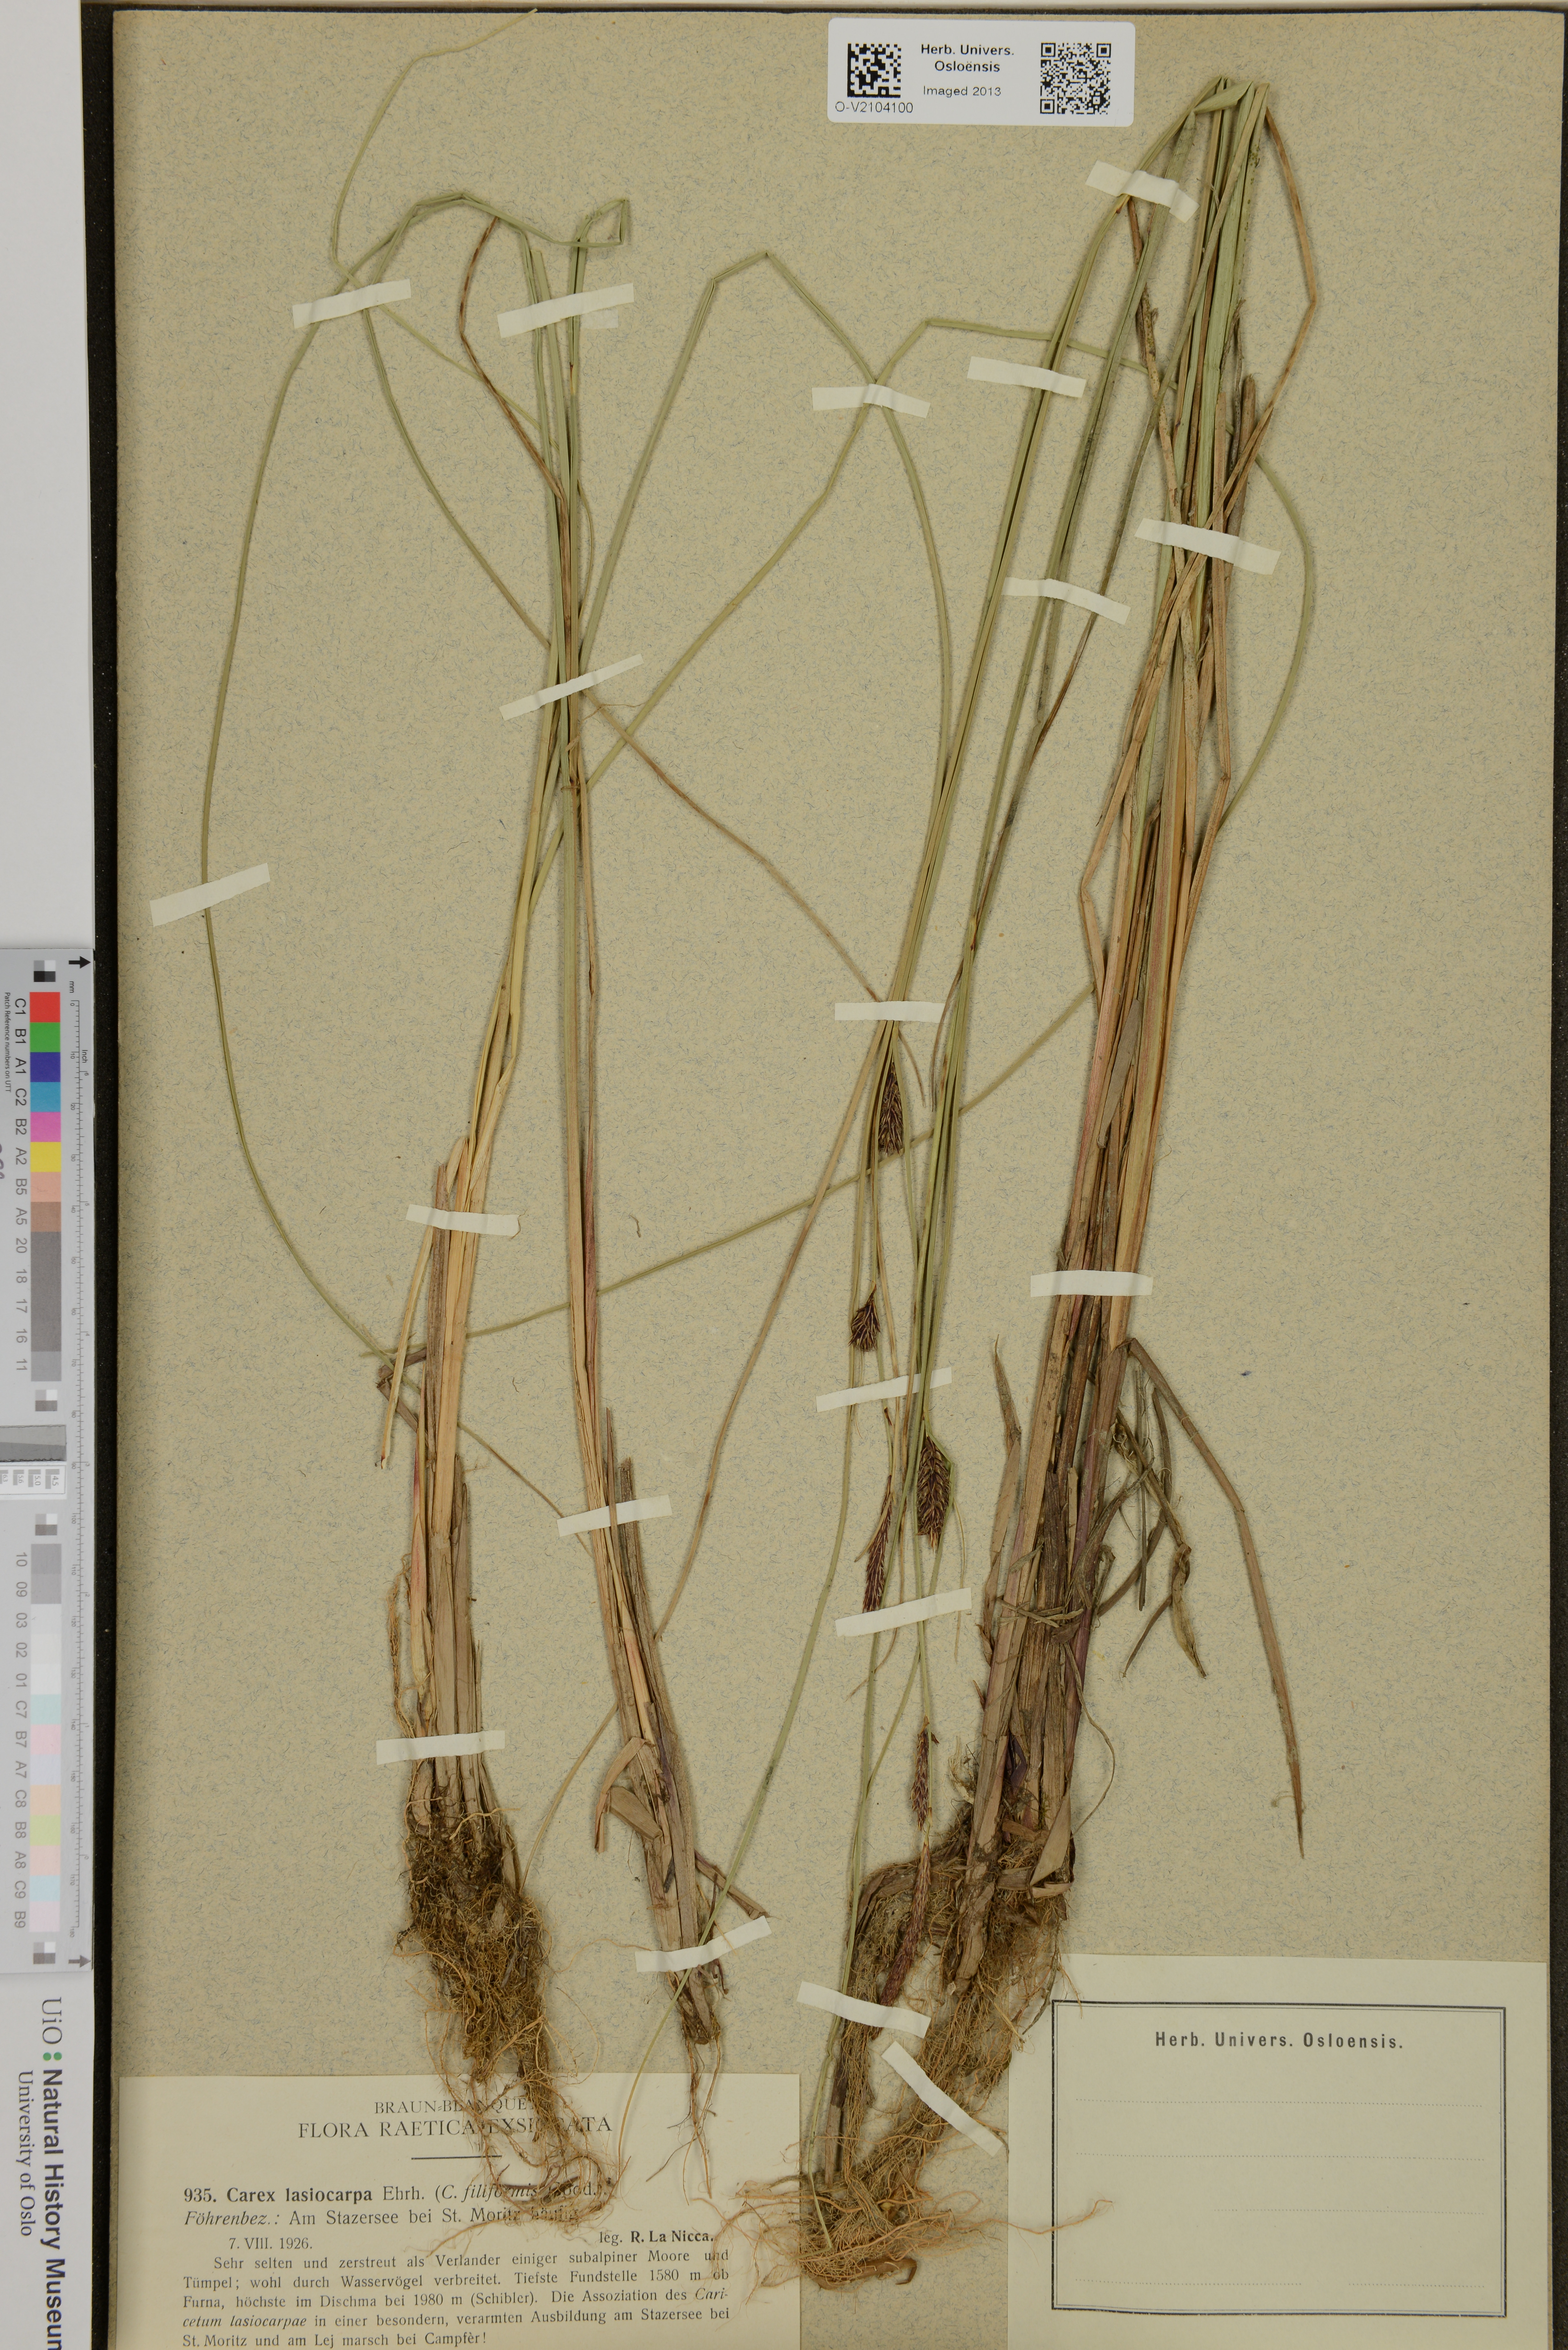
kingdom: Plantae
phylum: Tracheophyta
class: Liliopsida
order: Poales
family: Cyperaceae
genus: Carex
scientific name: Carex lasiocarpa
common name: Slender sedge
